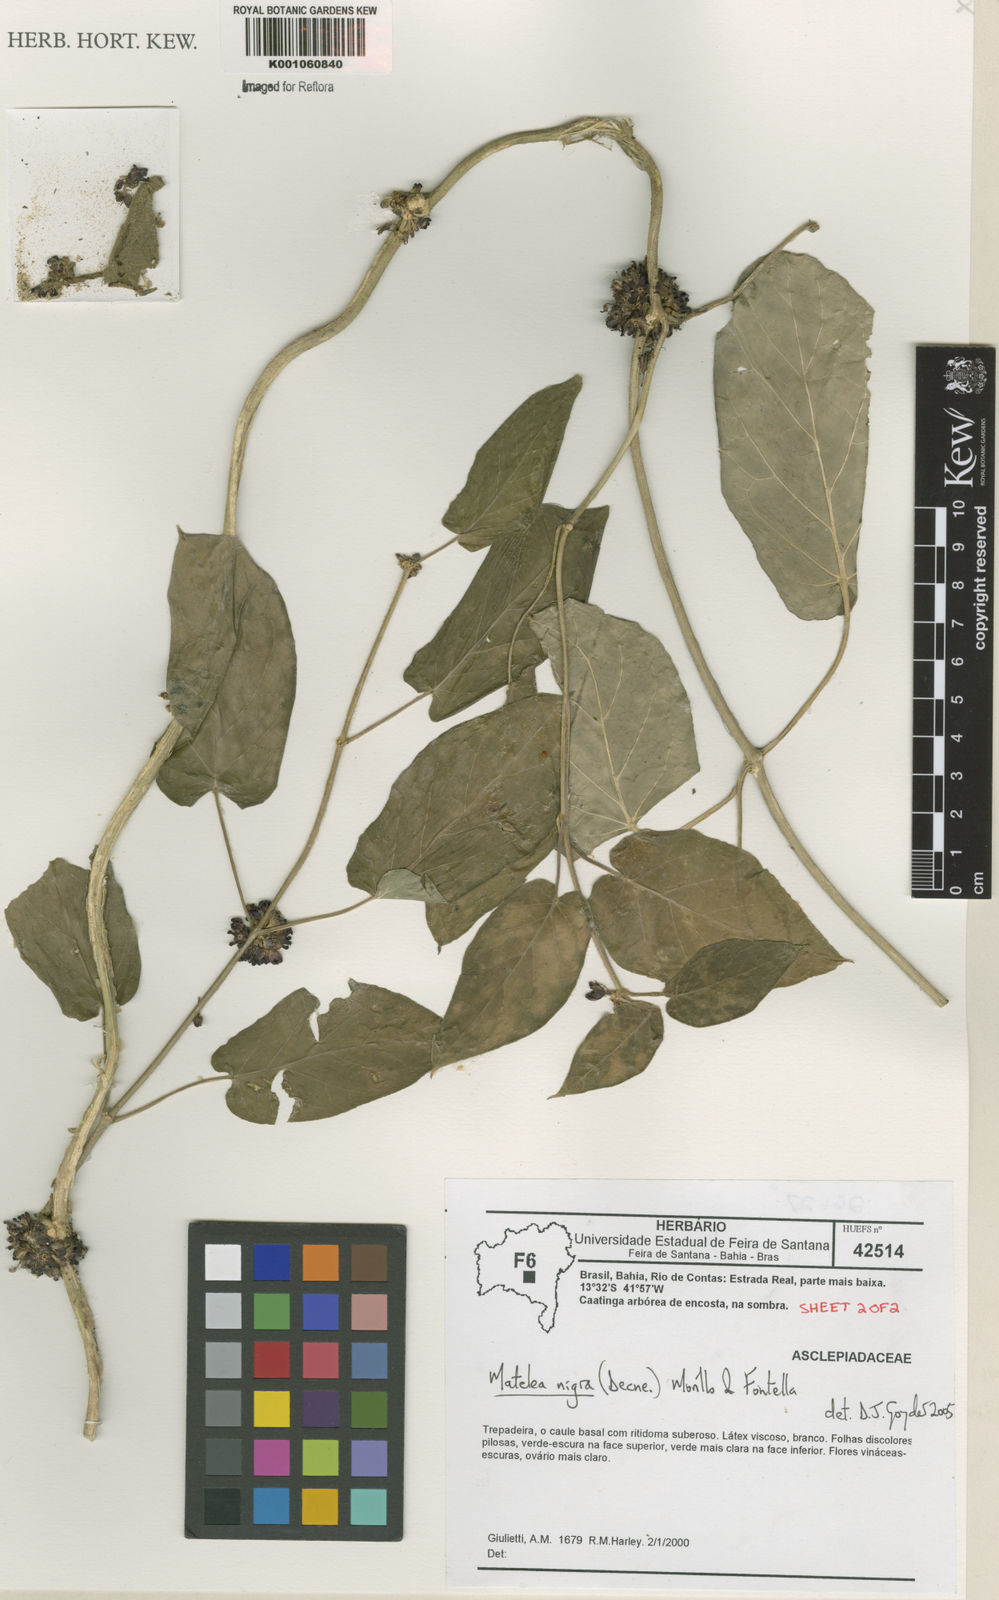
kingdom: Plantae
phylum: Tracheophyta
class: Magnoliopsida
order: Gentianales
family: Apocynaceae
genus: Ibatia
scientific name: Ibatia nigra
